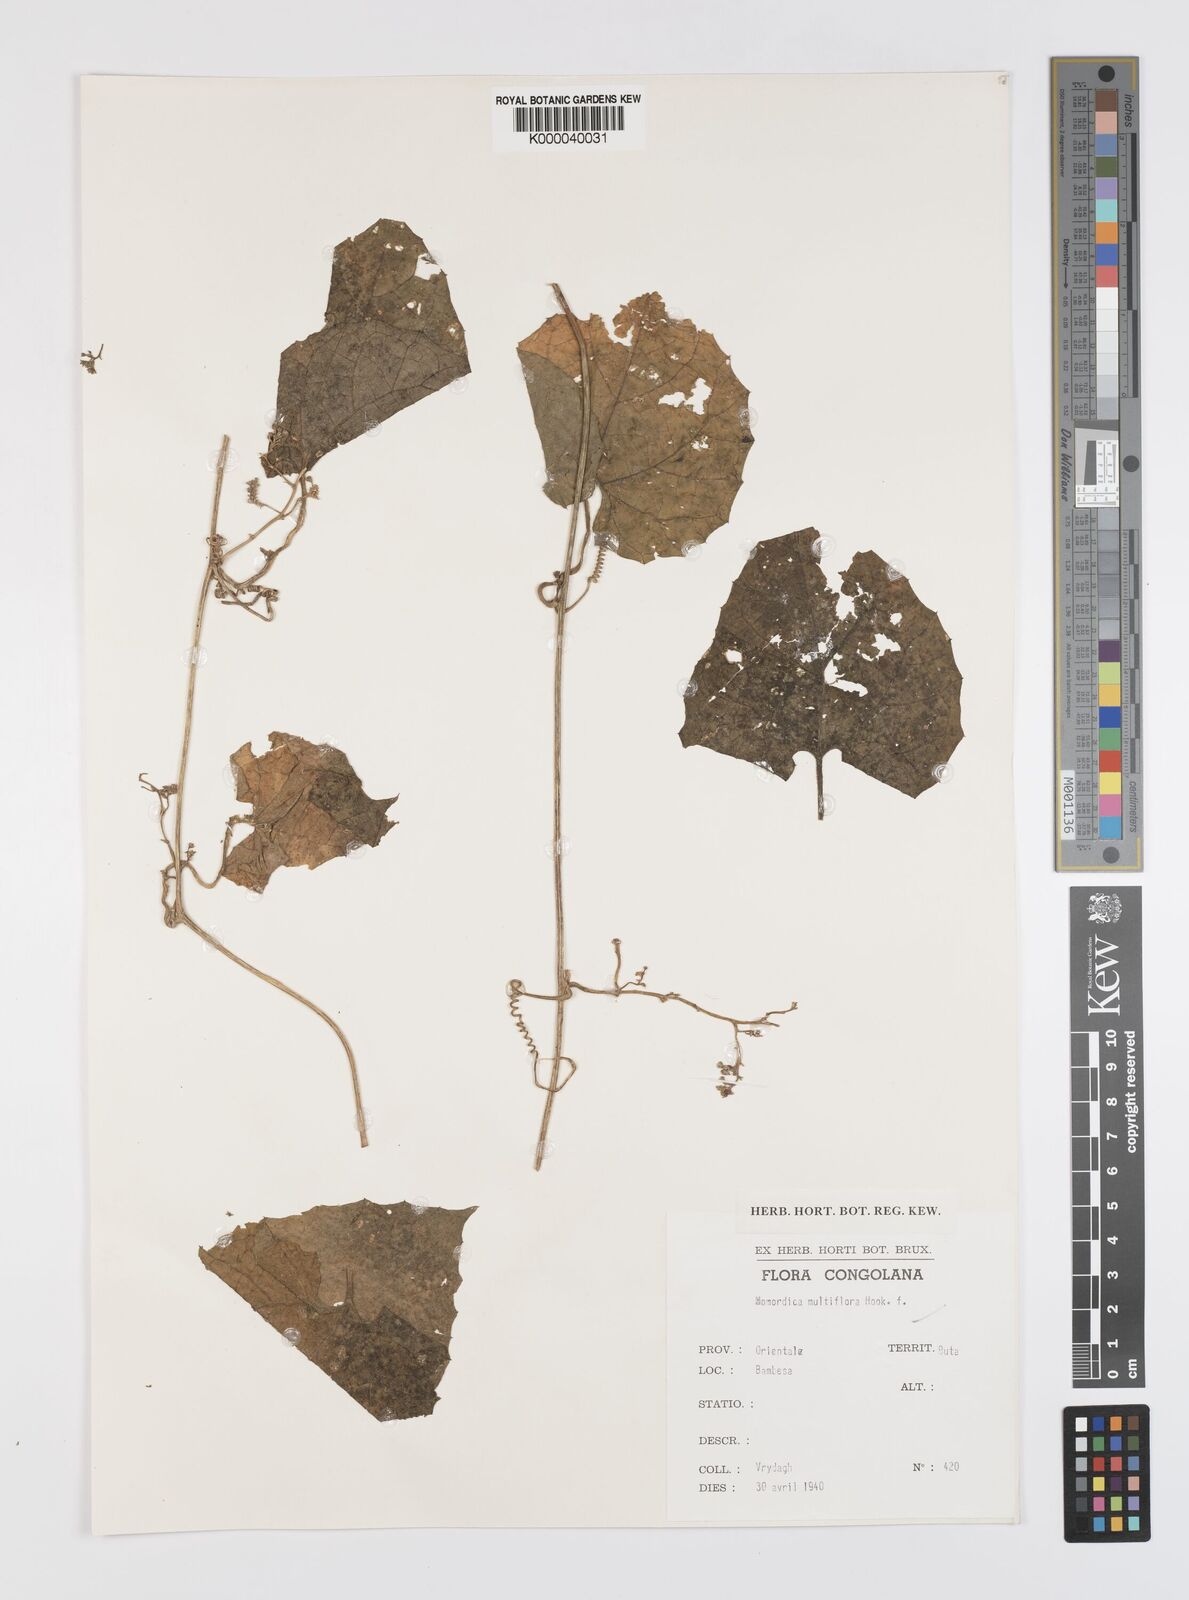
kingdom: Plantae
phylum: Tracheophyta
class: Magnoliopsida
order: Cucurbitales
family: Cucurbitaceae
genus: Momordica
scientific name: Momordica multiflora
